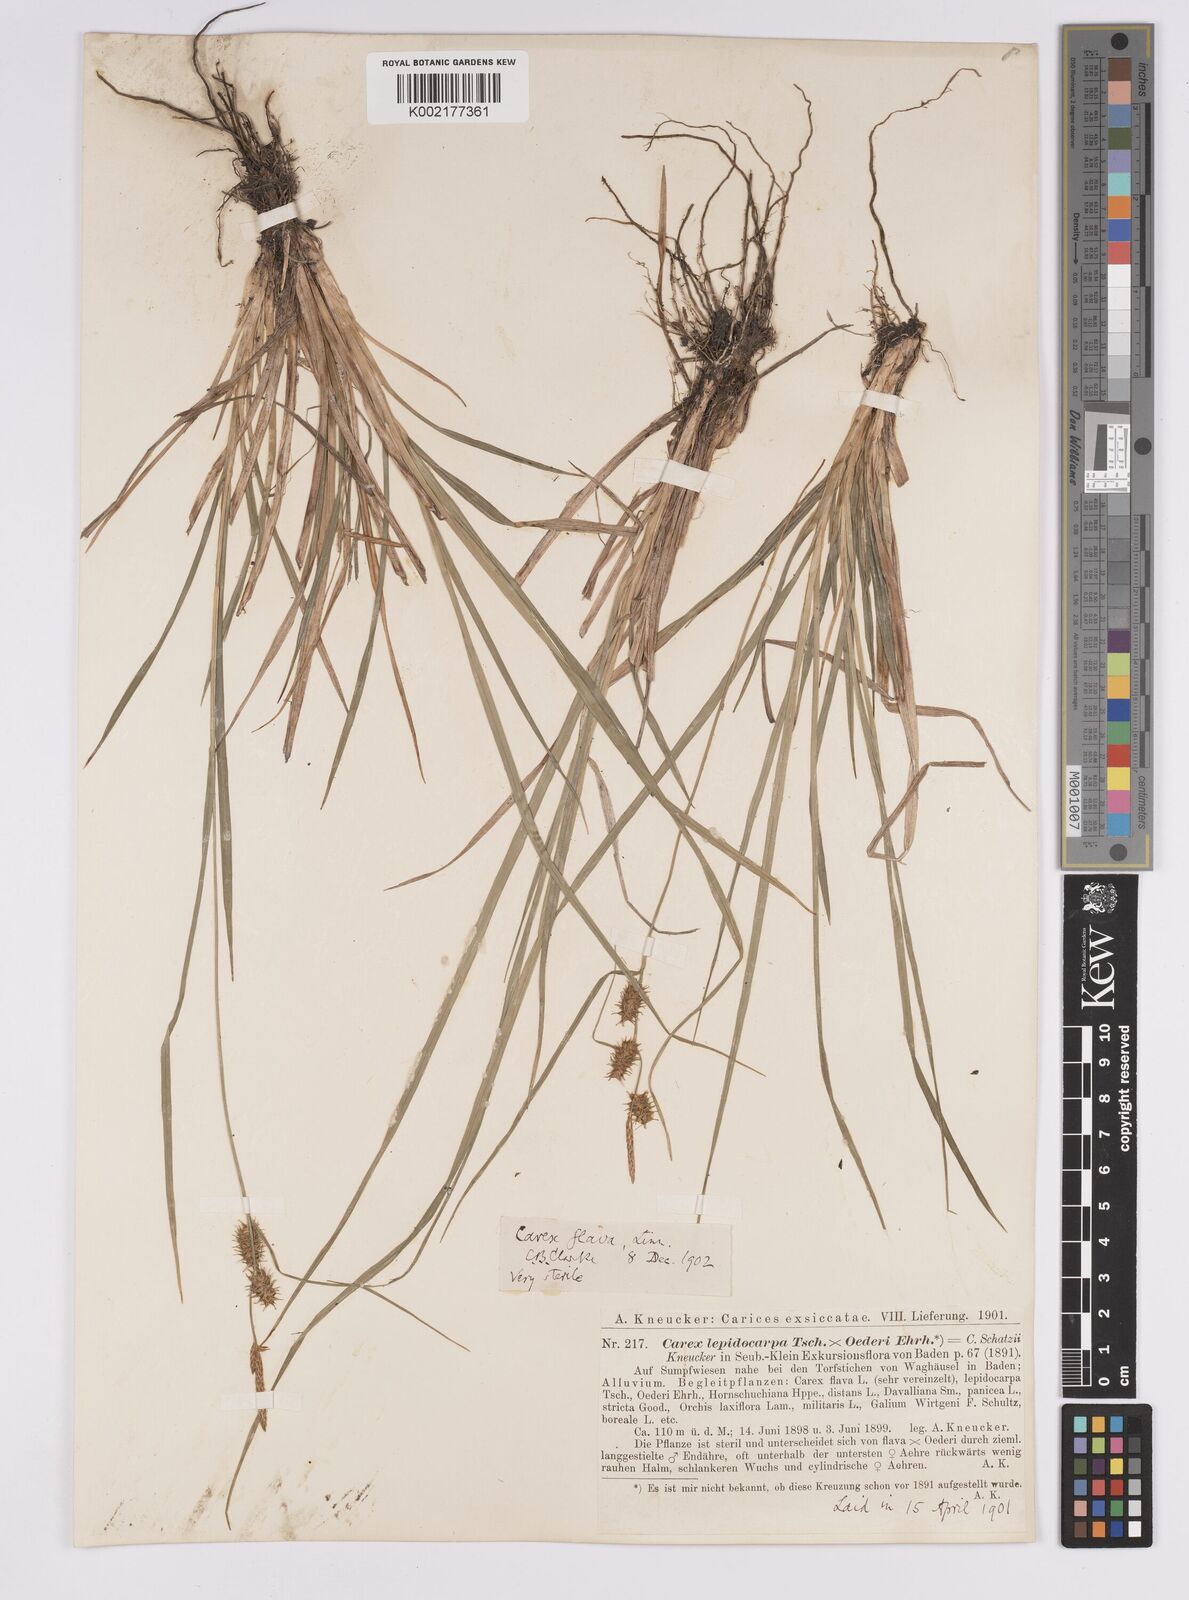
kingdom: Plantae
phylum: Tracheophyta
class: Liliopsida
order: Poales
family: Cyperaceae
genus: Carex
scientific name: Carex hostiana
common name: Tawny sedge
